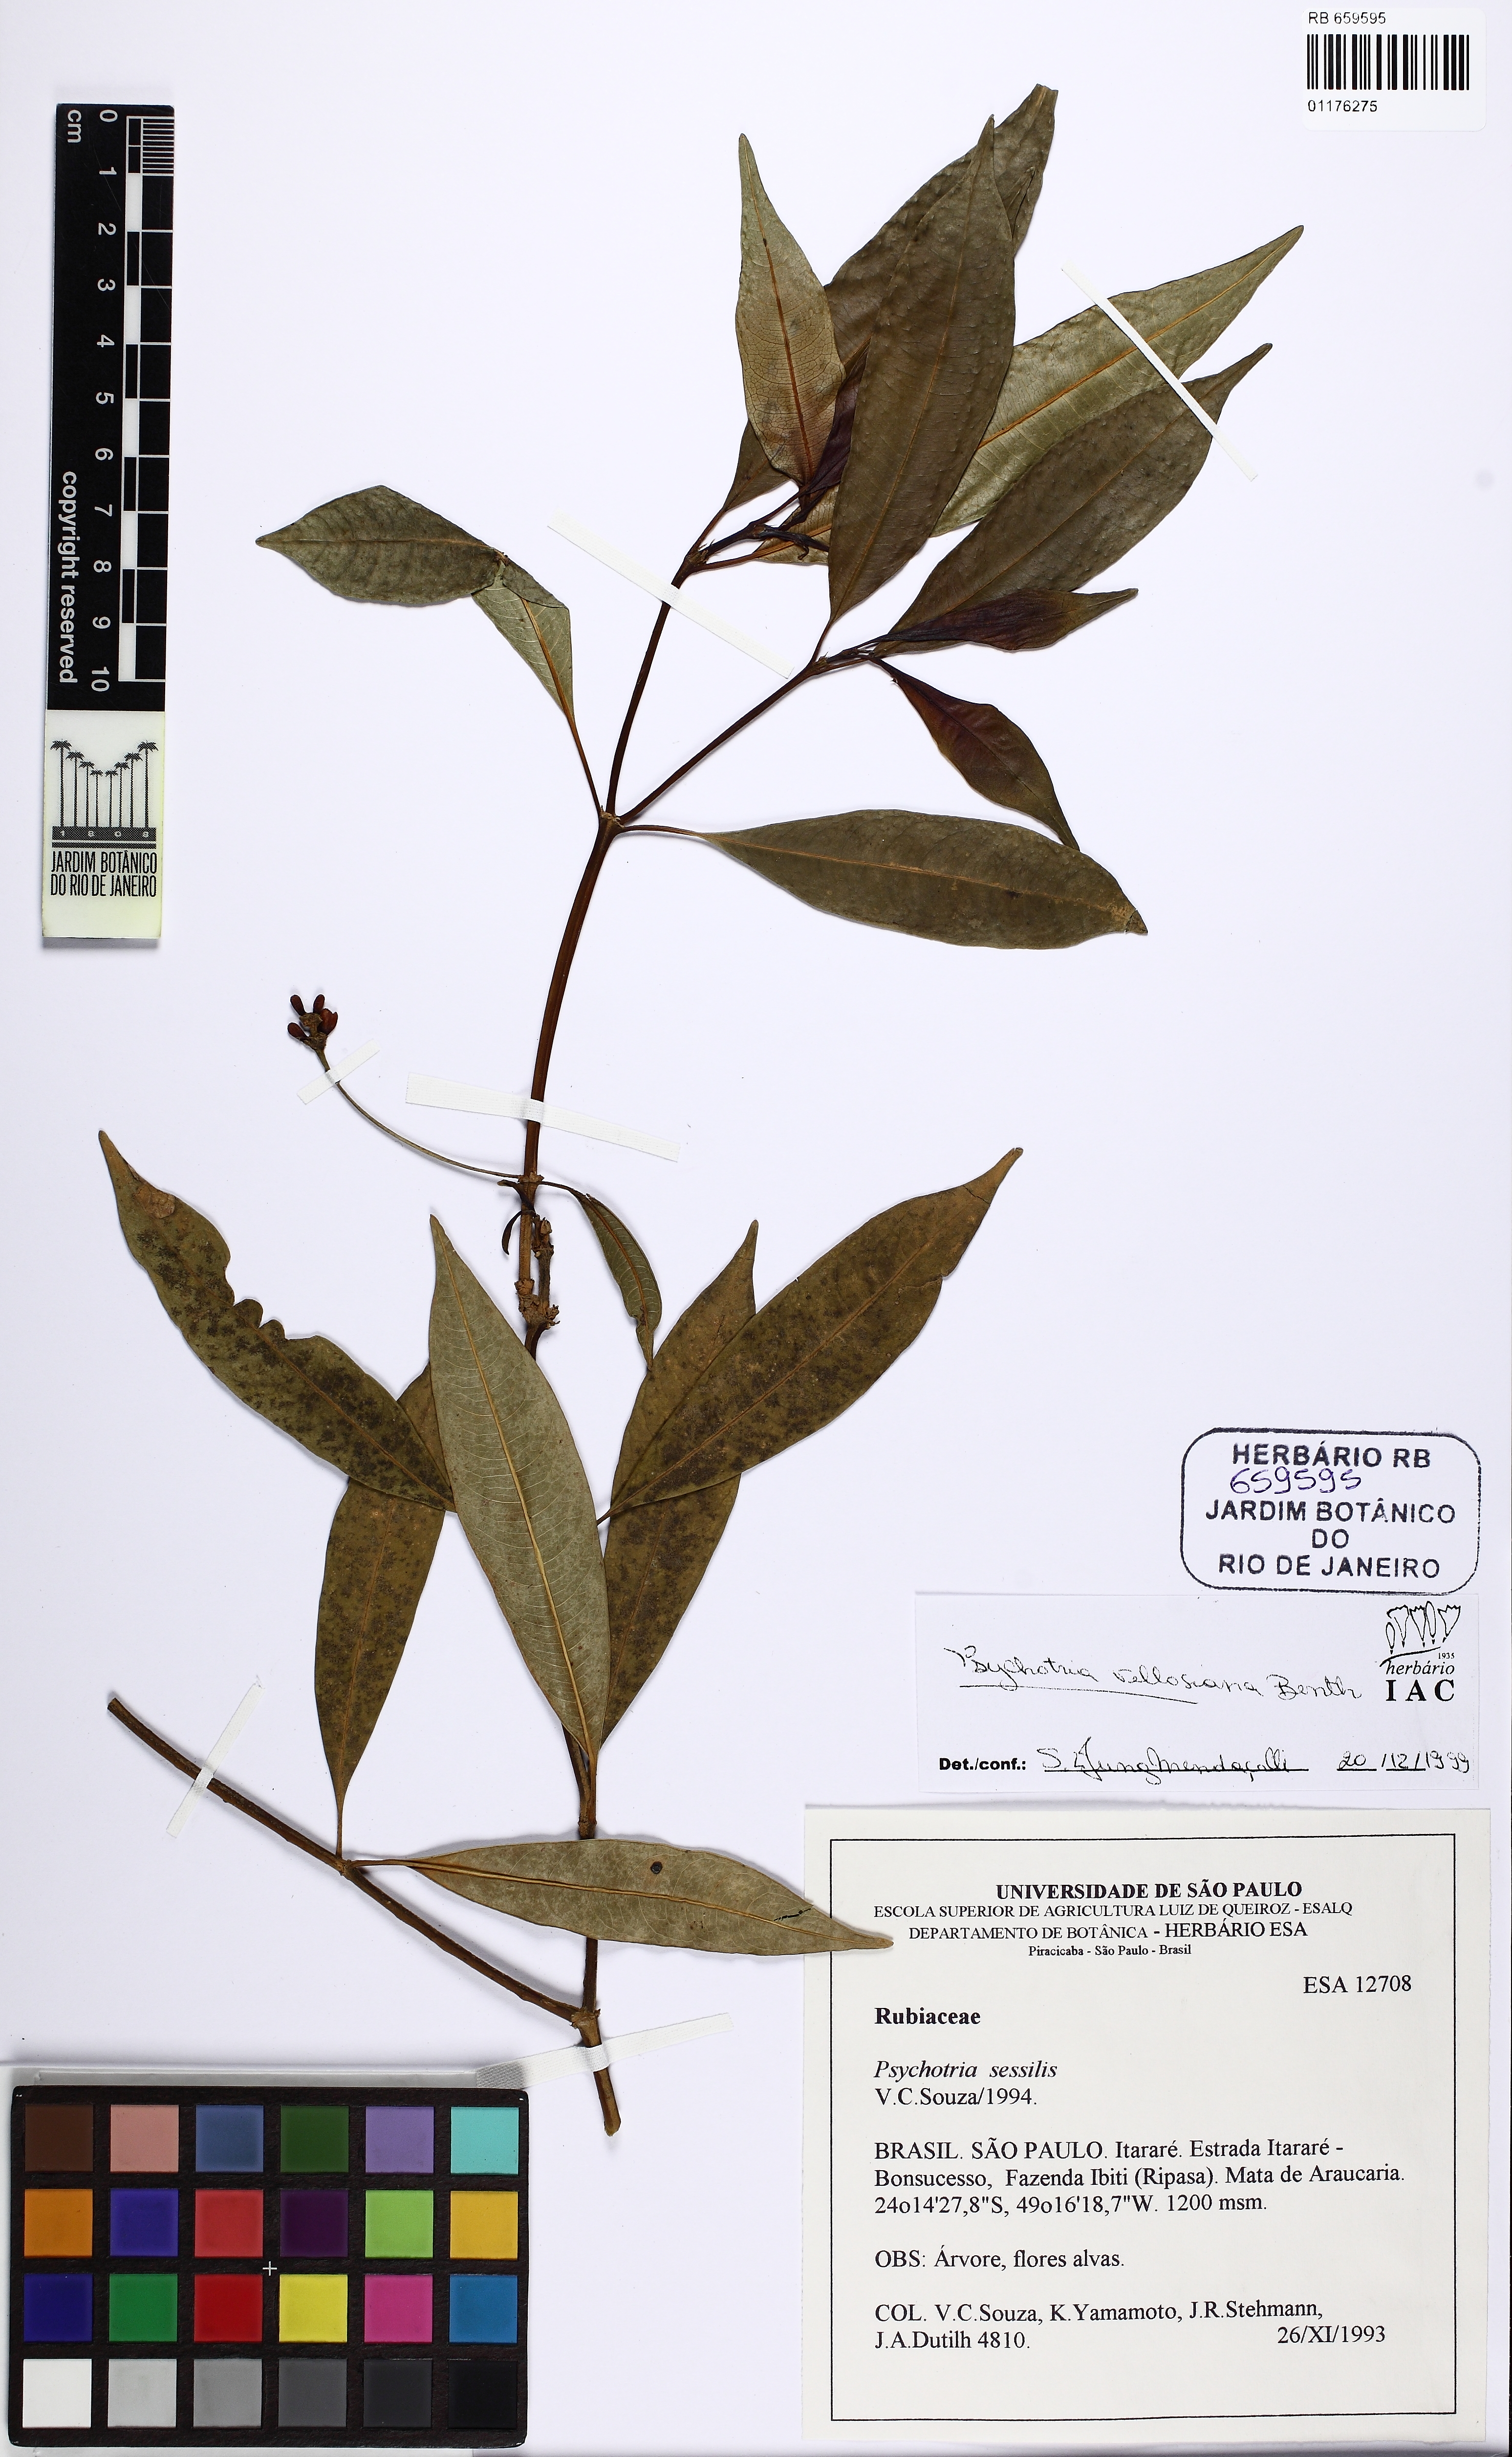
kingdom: Plantae
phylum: Tracheophyta
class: Magnoliopsida
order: Gentianales
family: Rubiaceae
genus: Palicourea
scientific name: Palicourea sessilis
